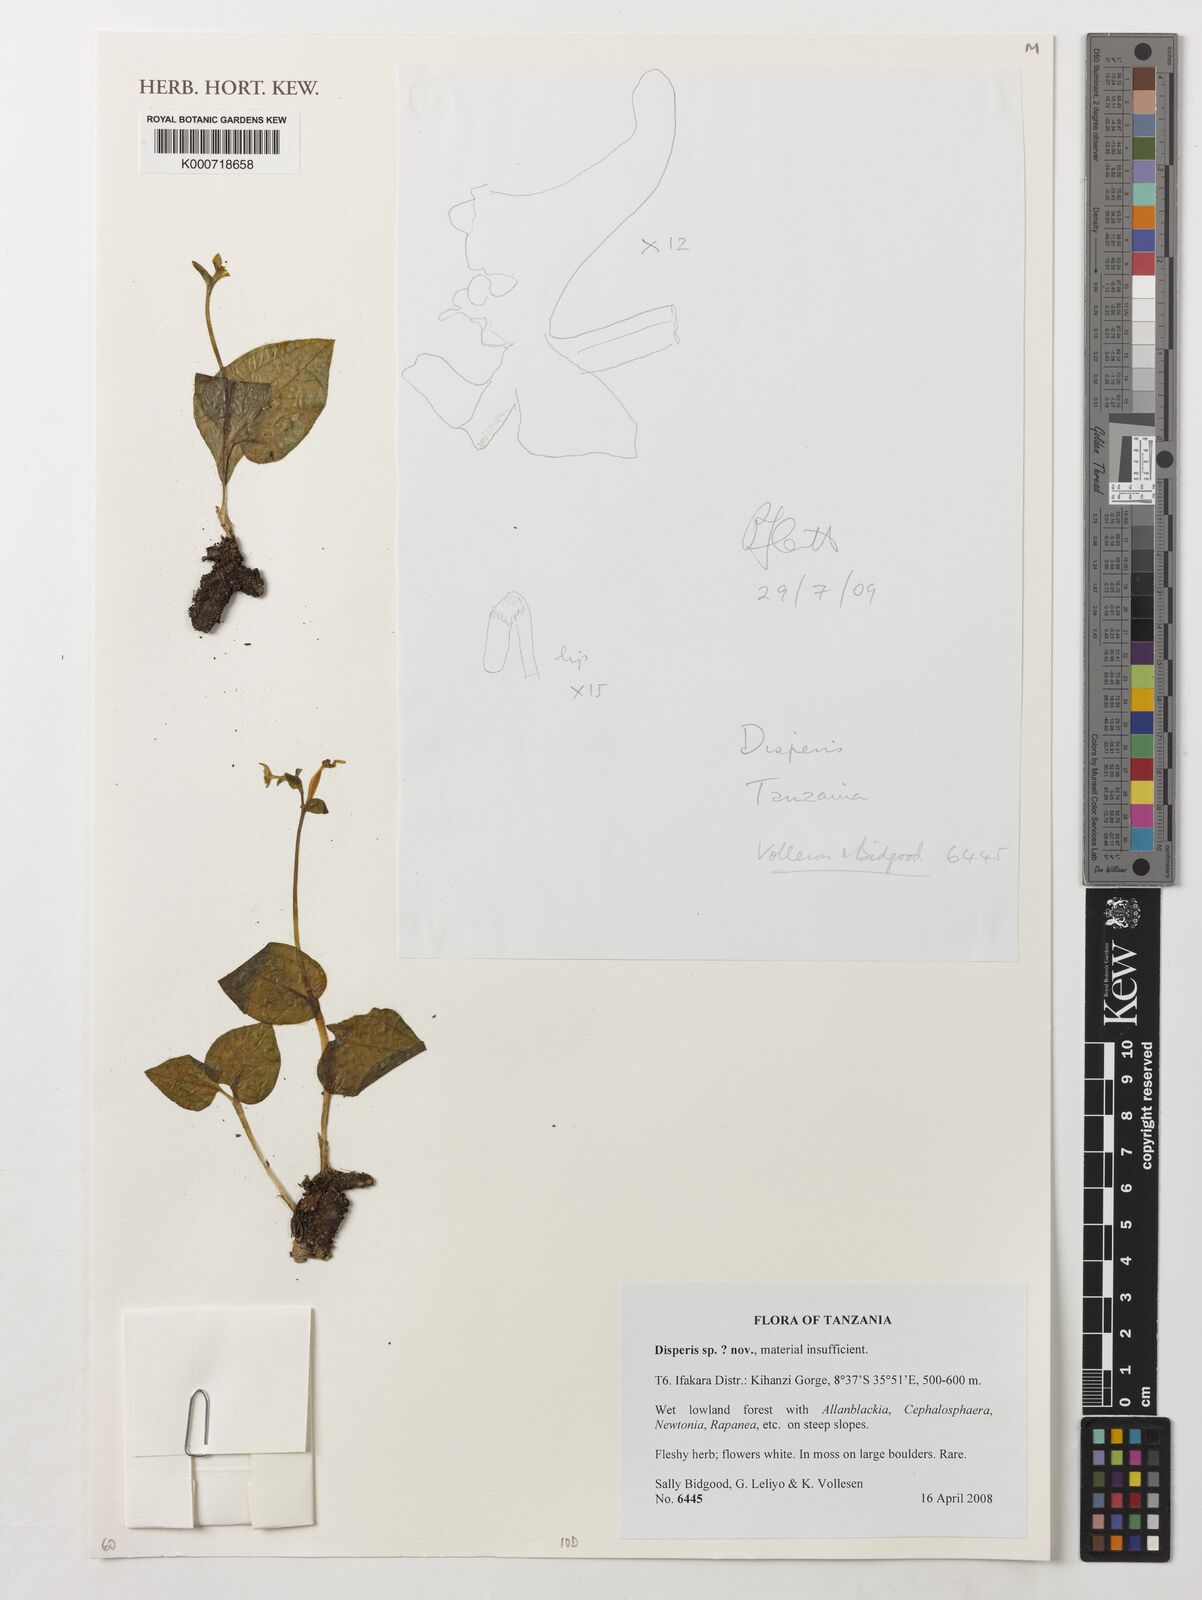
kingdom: Plantae
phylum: Tracheophyta
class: Liliopsida
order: Asparagales
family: Orchidaceae
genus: Disperis
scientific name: Disperis
